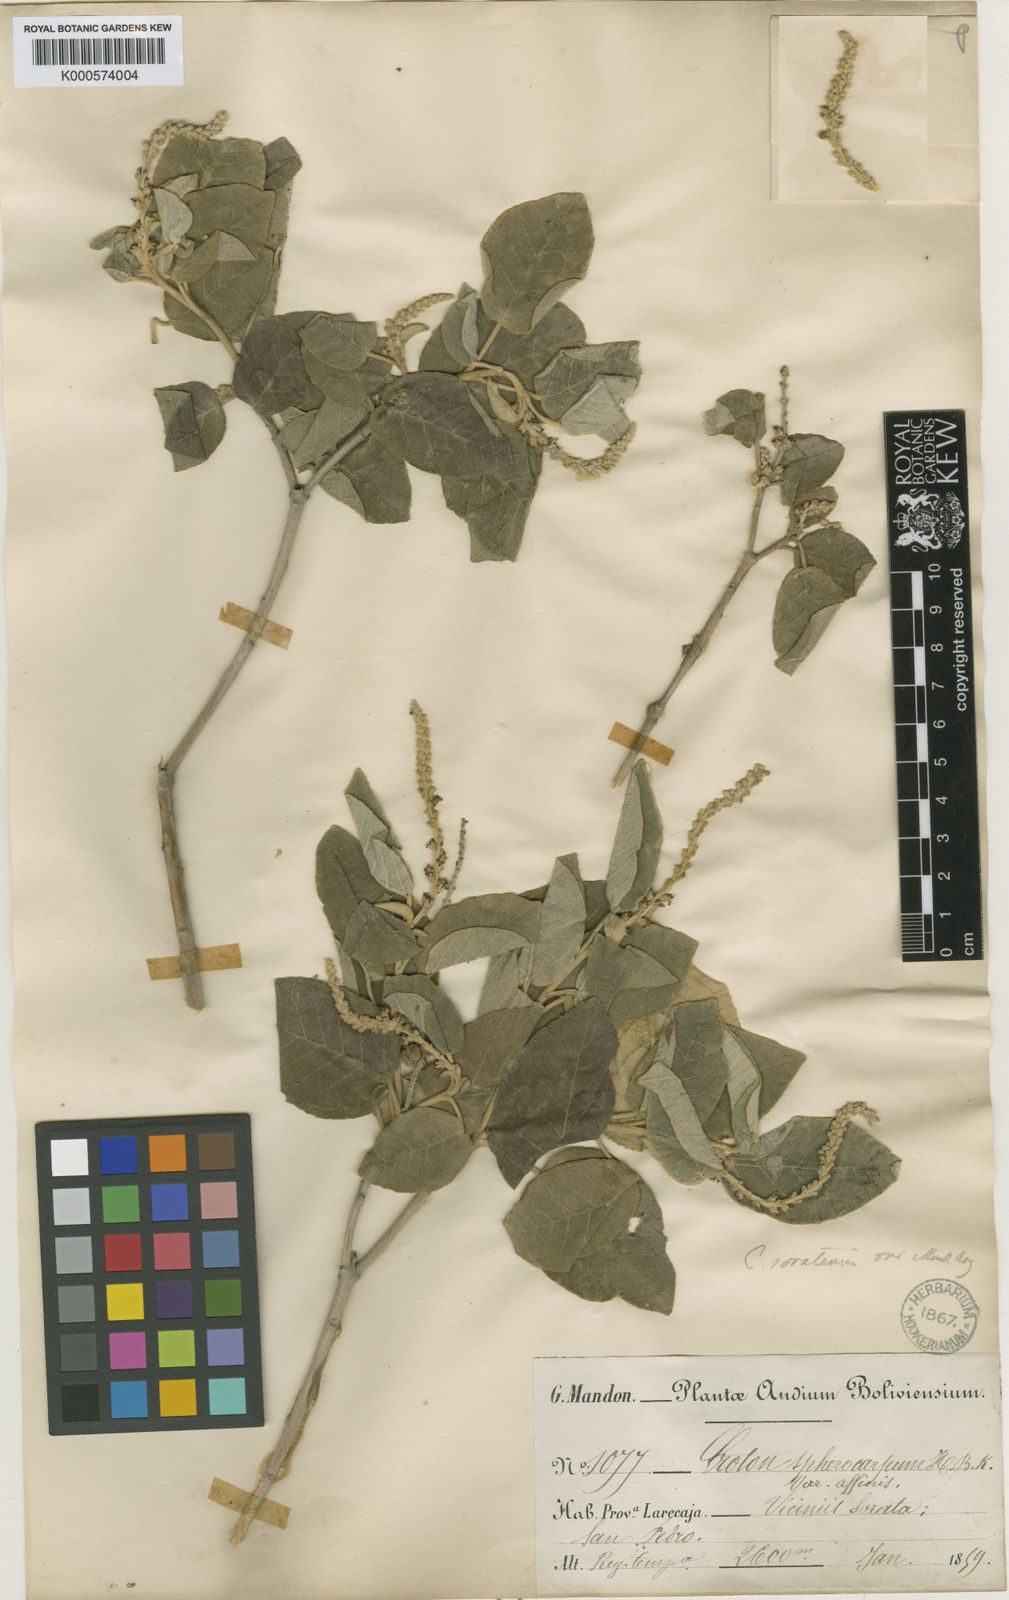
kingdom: Plantae
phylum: Tracheophyta
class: Magnoliopsida
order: Malpighiales
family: Euphorbiaceae
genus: Croton
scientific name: Croton
